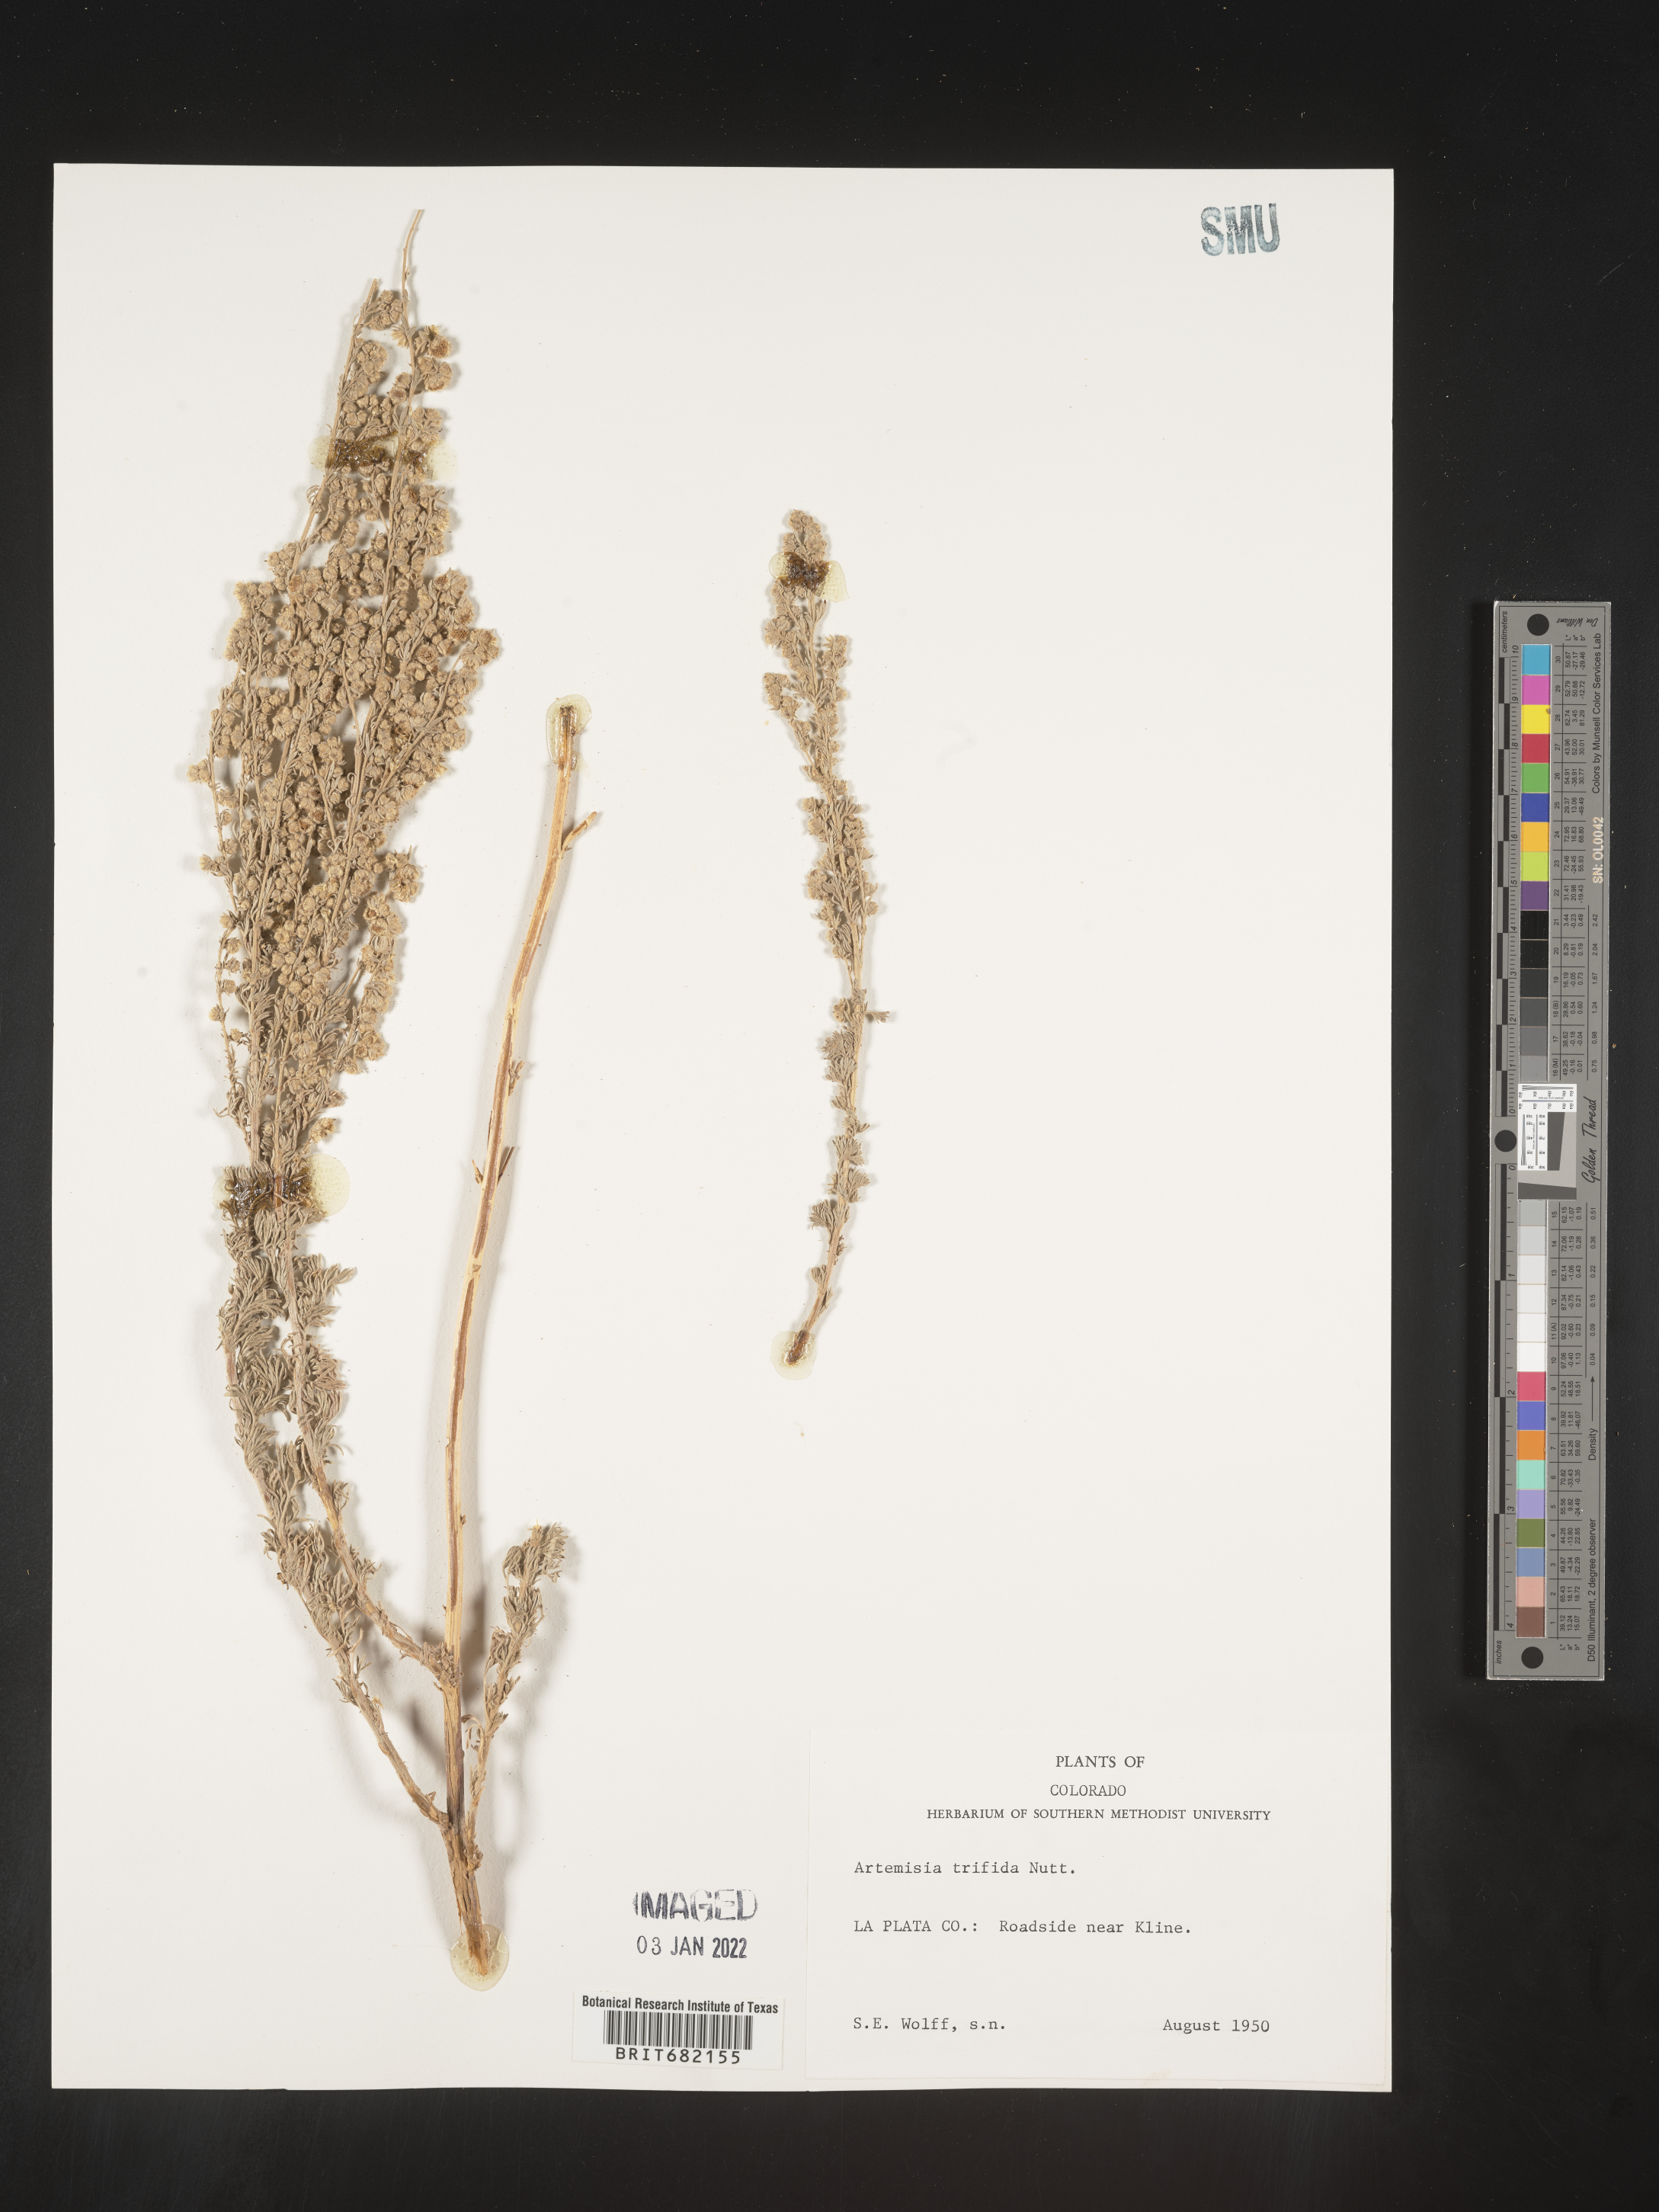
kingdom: Plantae
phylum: Tracheophyta
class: Magnoliopsida
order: Asterales
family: Asteraceae
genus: Artemisia
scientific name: Artemisia tridentata
